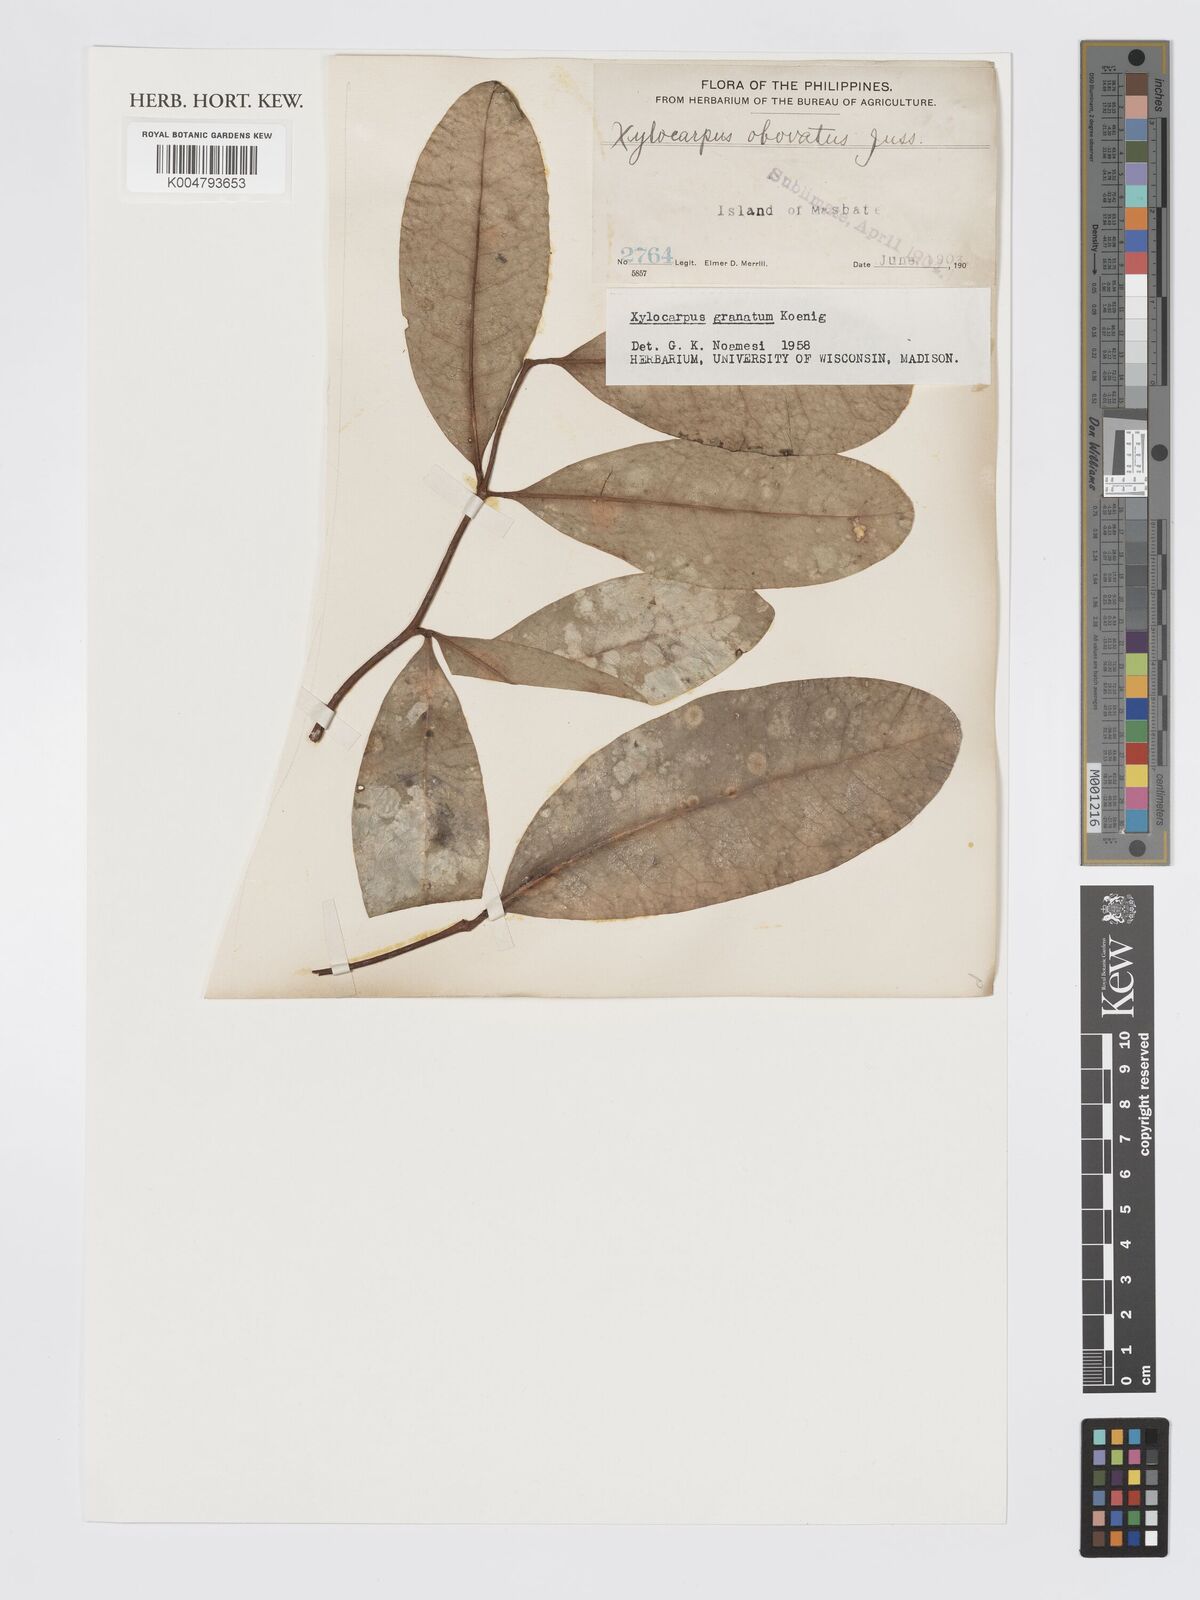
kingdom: Plantae
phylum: Tracheophyta
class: Magnoliopsida
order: Sapindales
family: Meliaceae
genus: Xylocarpus
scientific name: Xylocarpus granatum
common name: Apple mangrove
